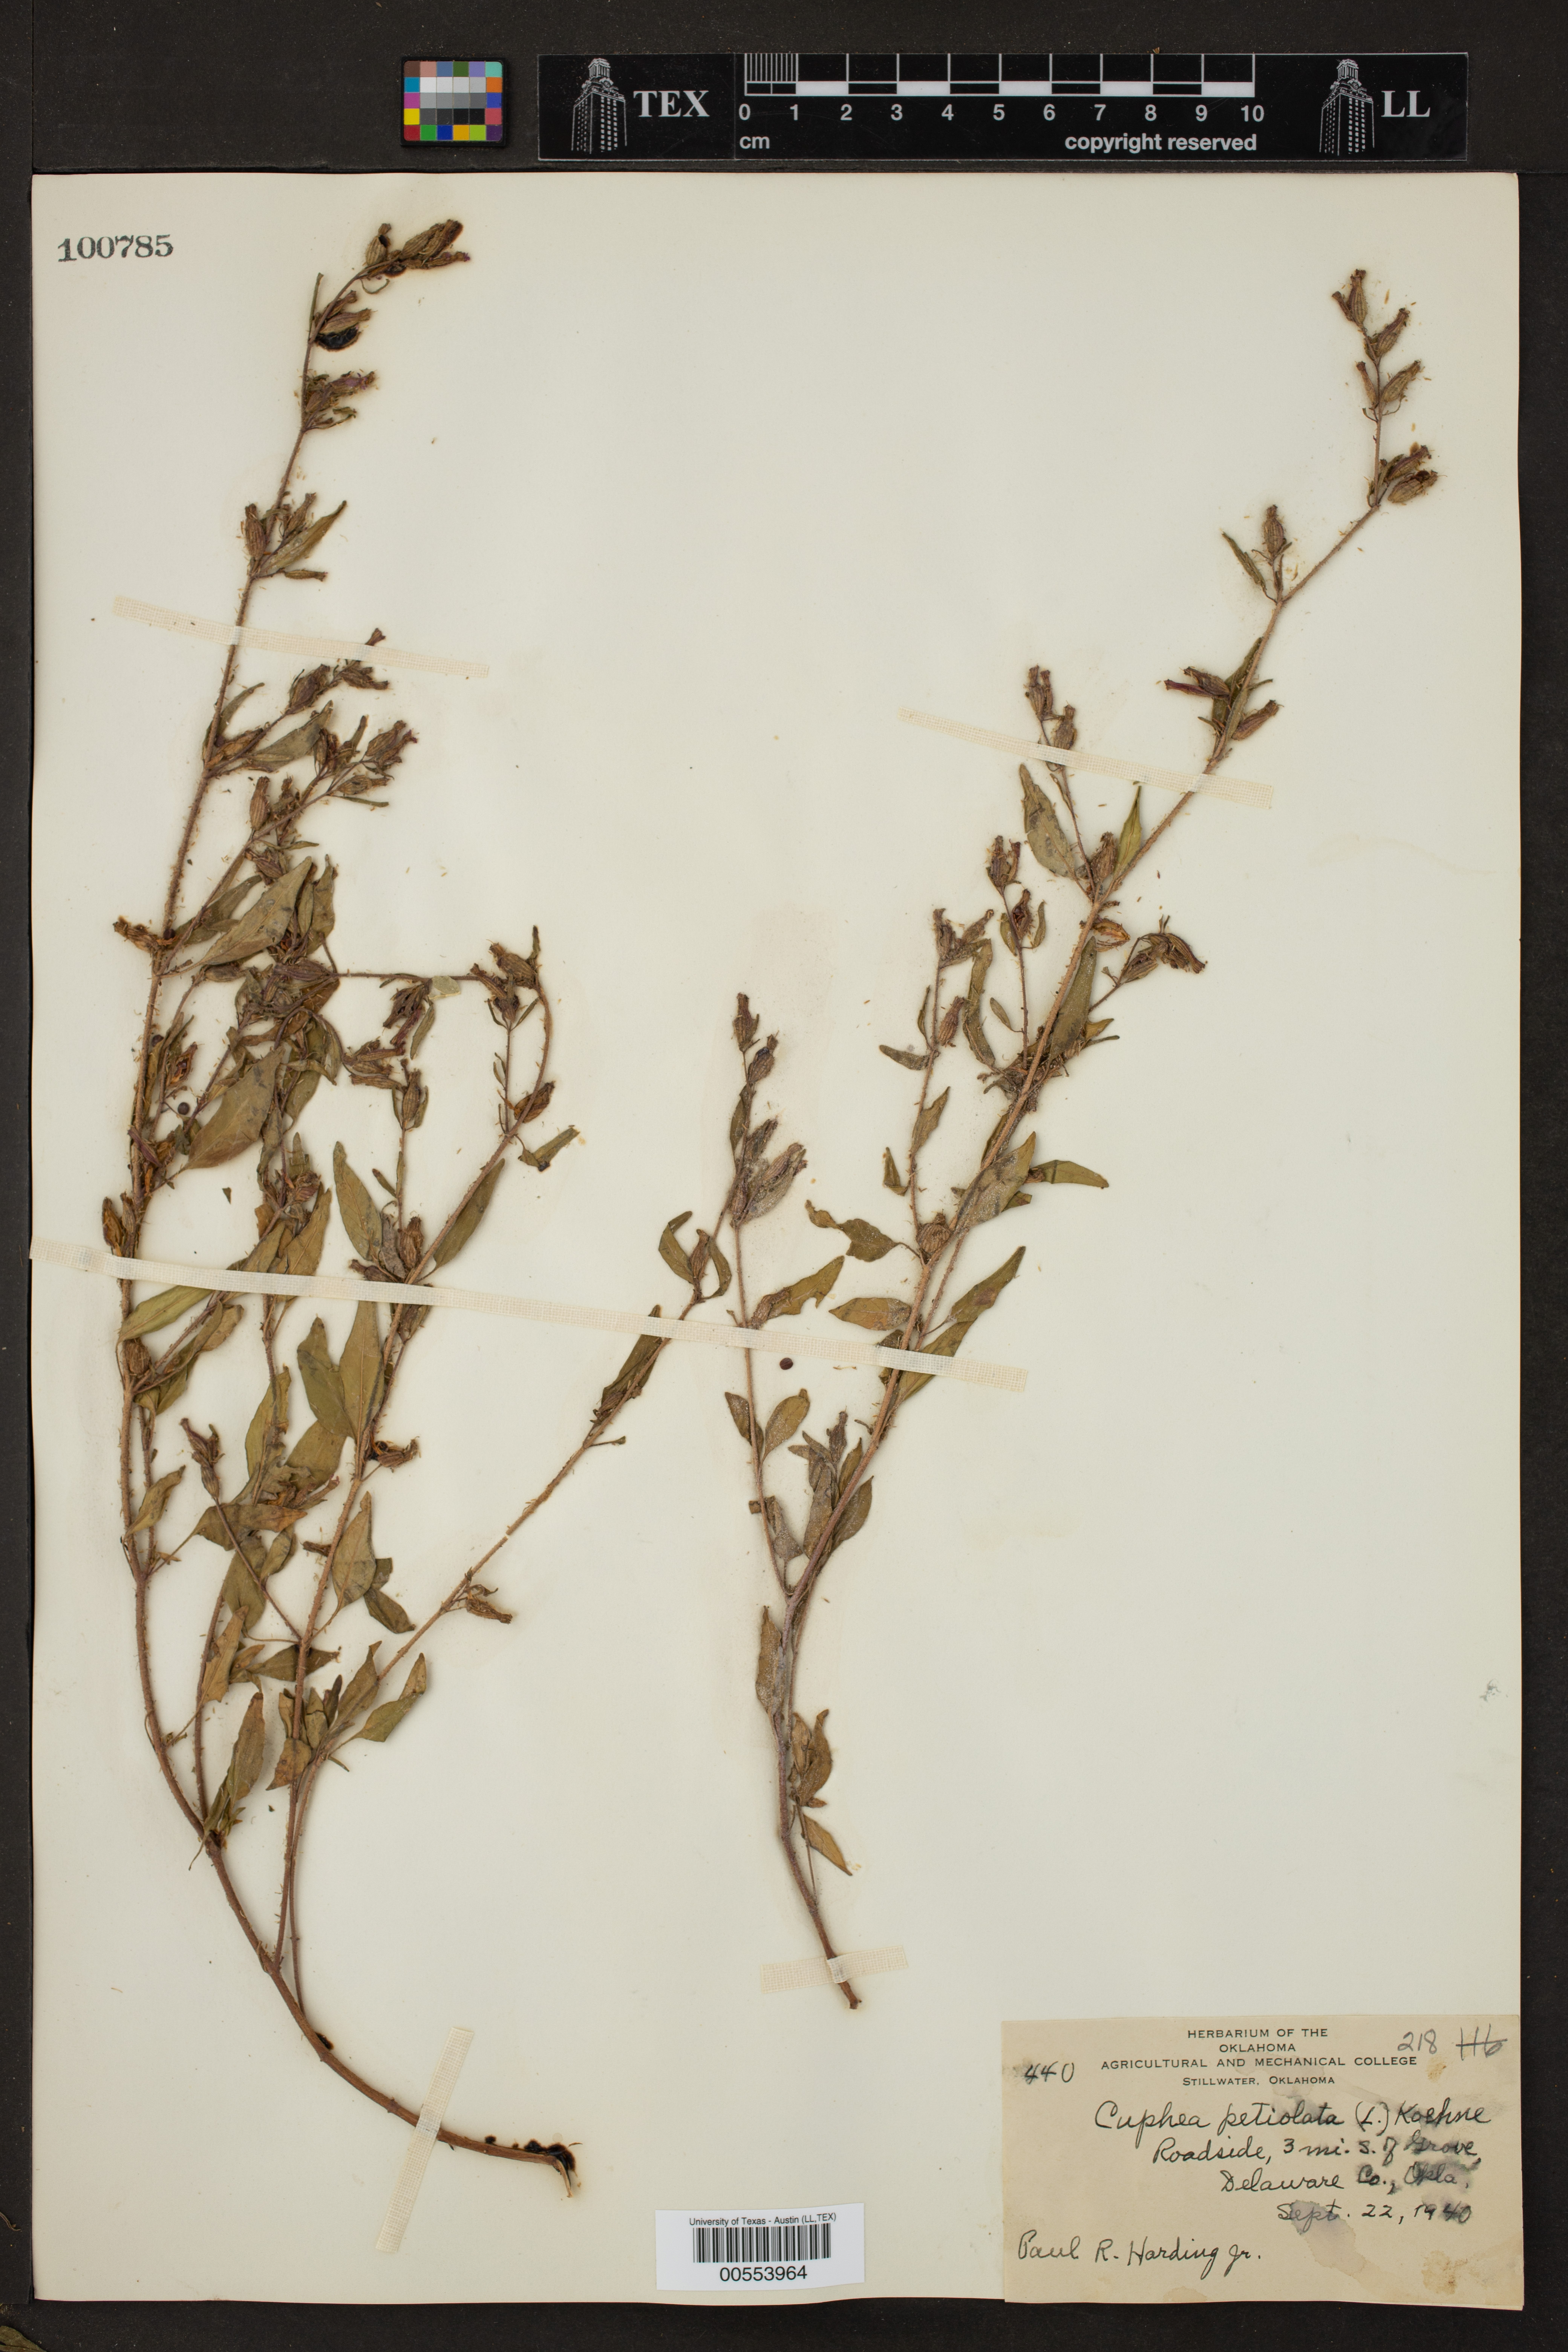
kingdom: Plantae
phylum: Tracheophyta
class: Magnoliopsida
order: Myrtales
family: Lythraceae
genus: Cuphea
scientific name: Cuphea viscosissima
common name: Clammy cuphea
